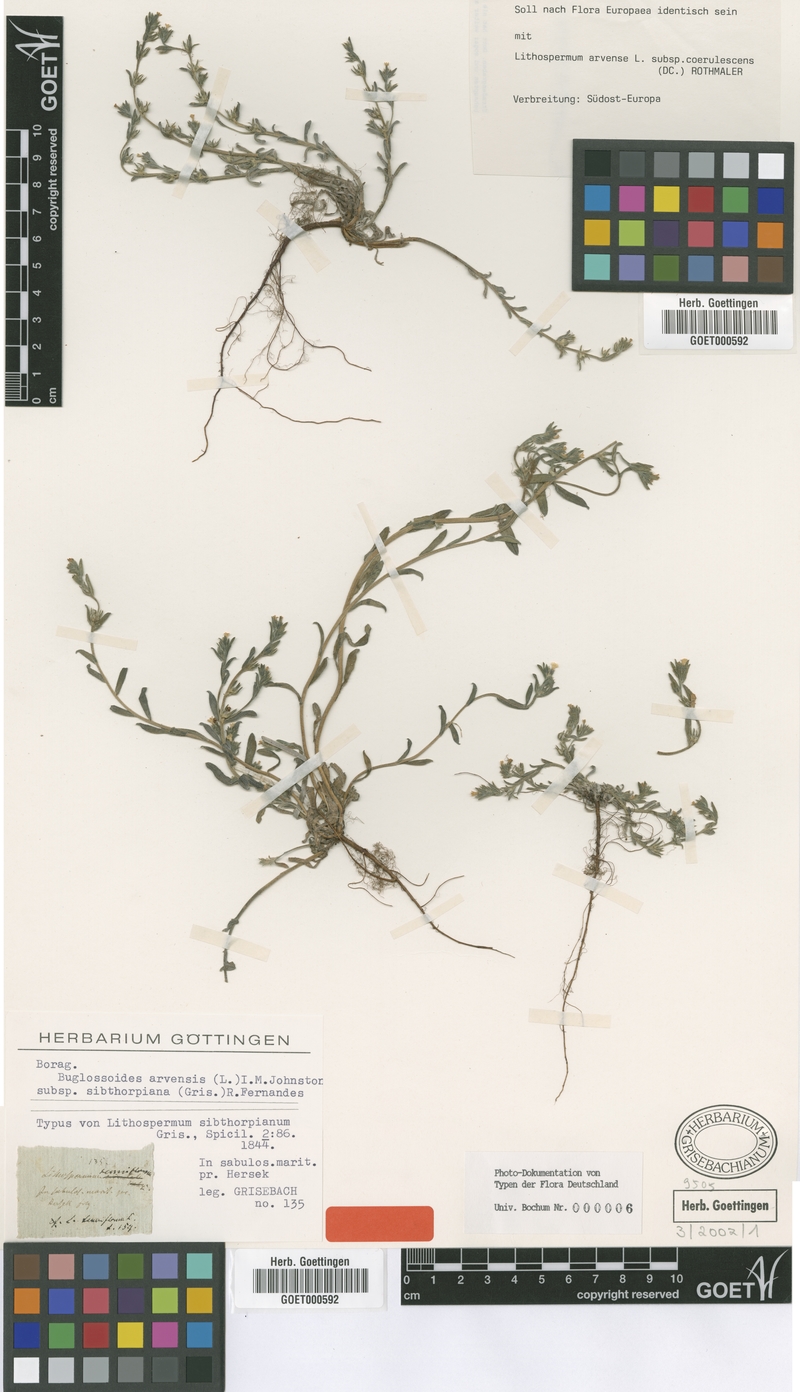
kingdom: Plantae
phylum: Tracheophyta
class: Magnoliopsida
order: Boraginales
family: Boraginaceae
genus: Buglossoides
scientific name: Buglossoides arvensis
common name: Corn gromwell
